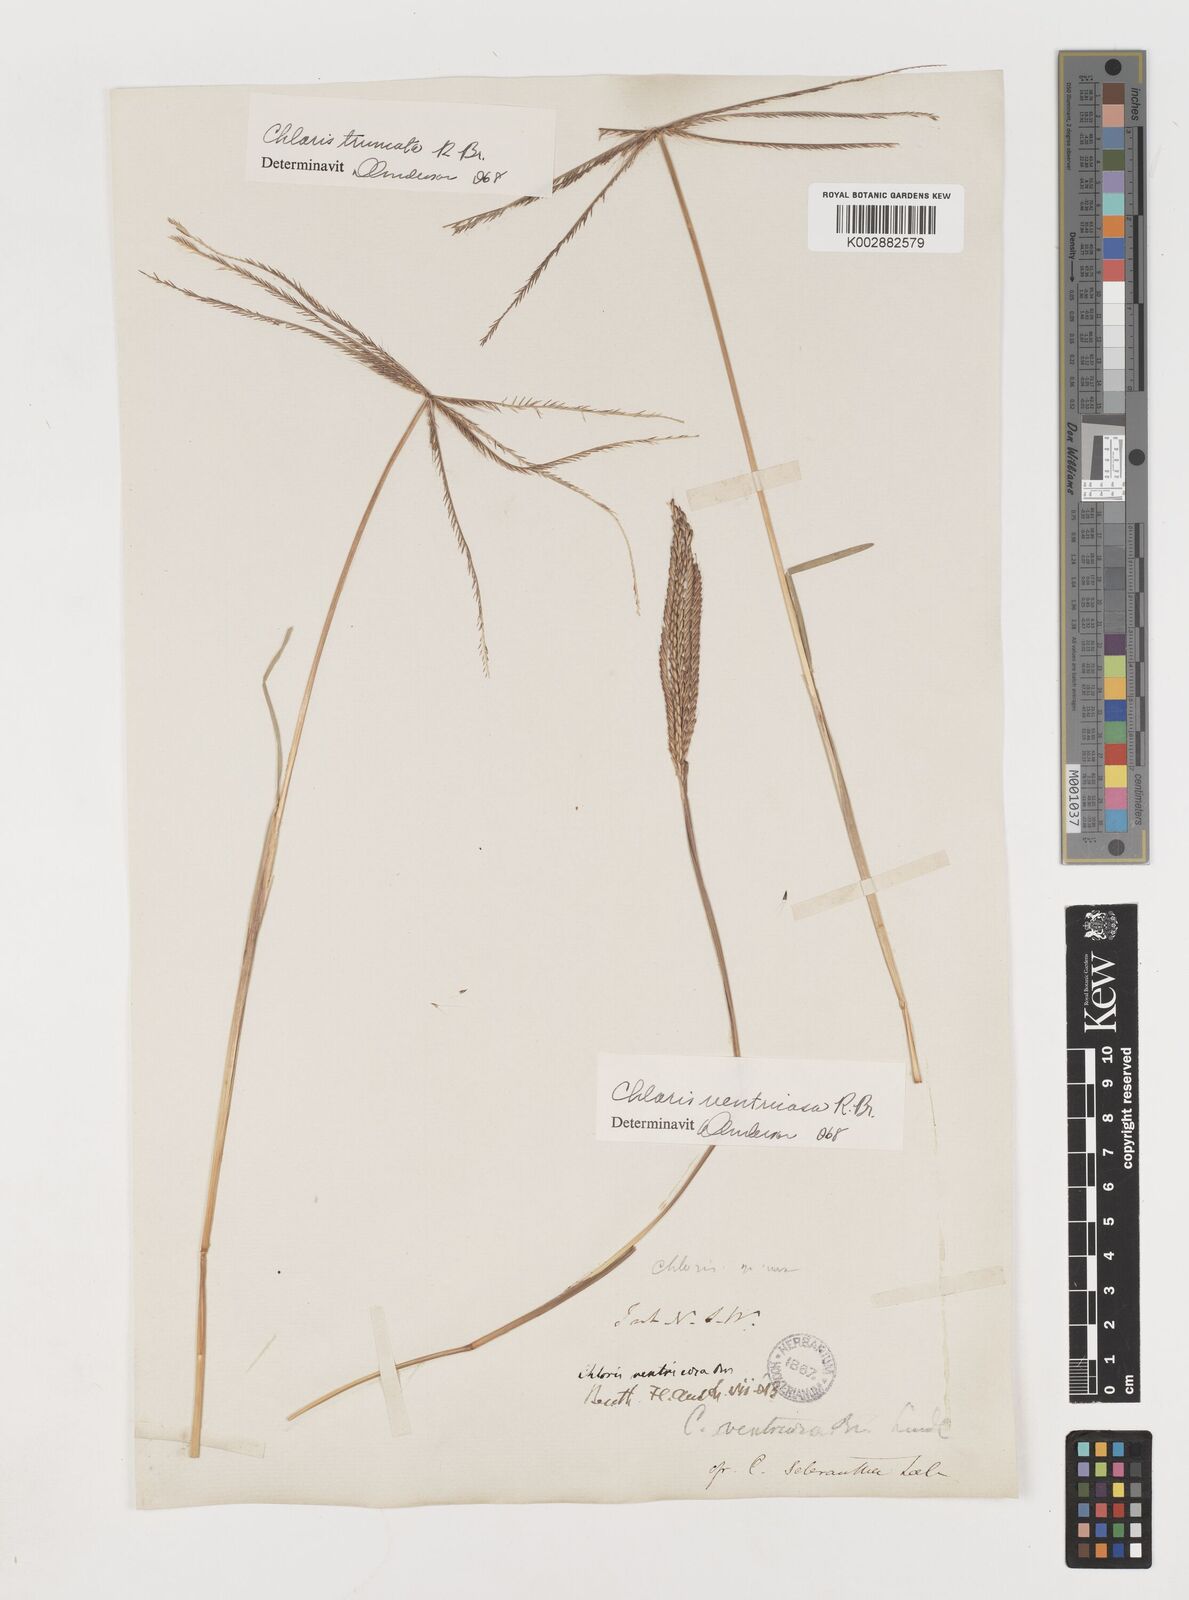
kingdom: Plantae
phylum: Tracheophyta
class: Liliopsida
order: Poales
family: Poaceae
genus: Chloris
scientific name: Chloris truncata
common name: Windmill-grass
